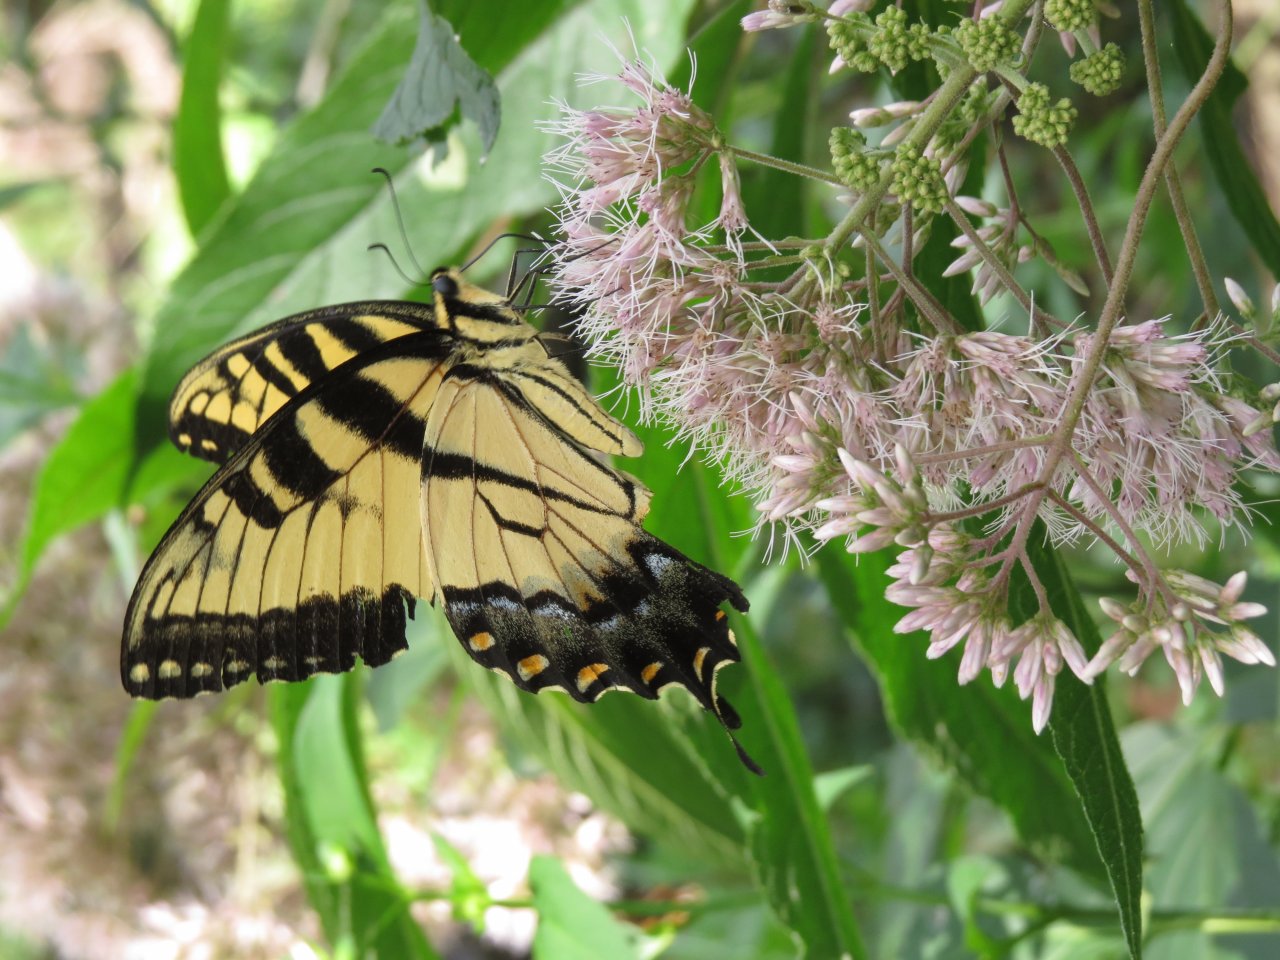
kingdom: Animalia
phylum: Arthropoda
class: Insecta
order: Lepidoptera
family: Papilionidae
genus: Pterourus
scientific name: Pterourus glaucus
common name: Eastern Tiger Swallowtail
